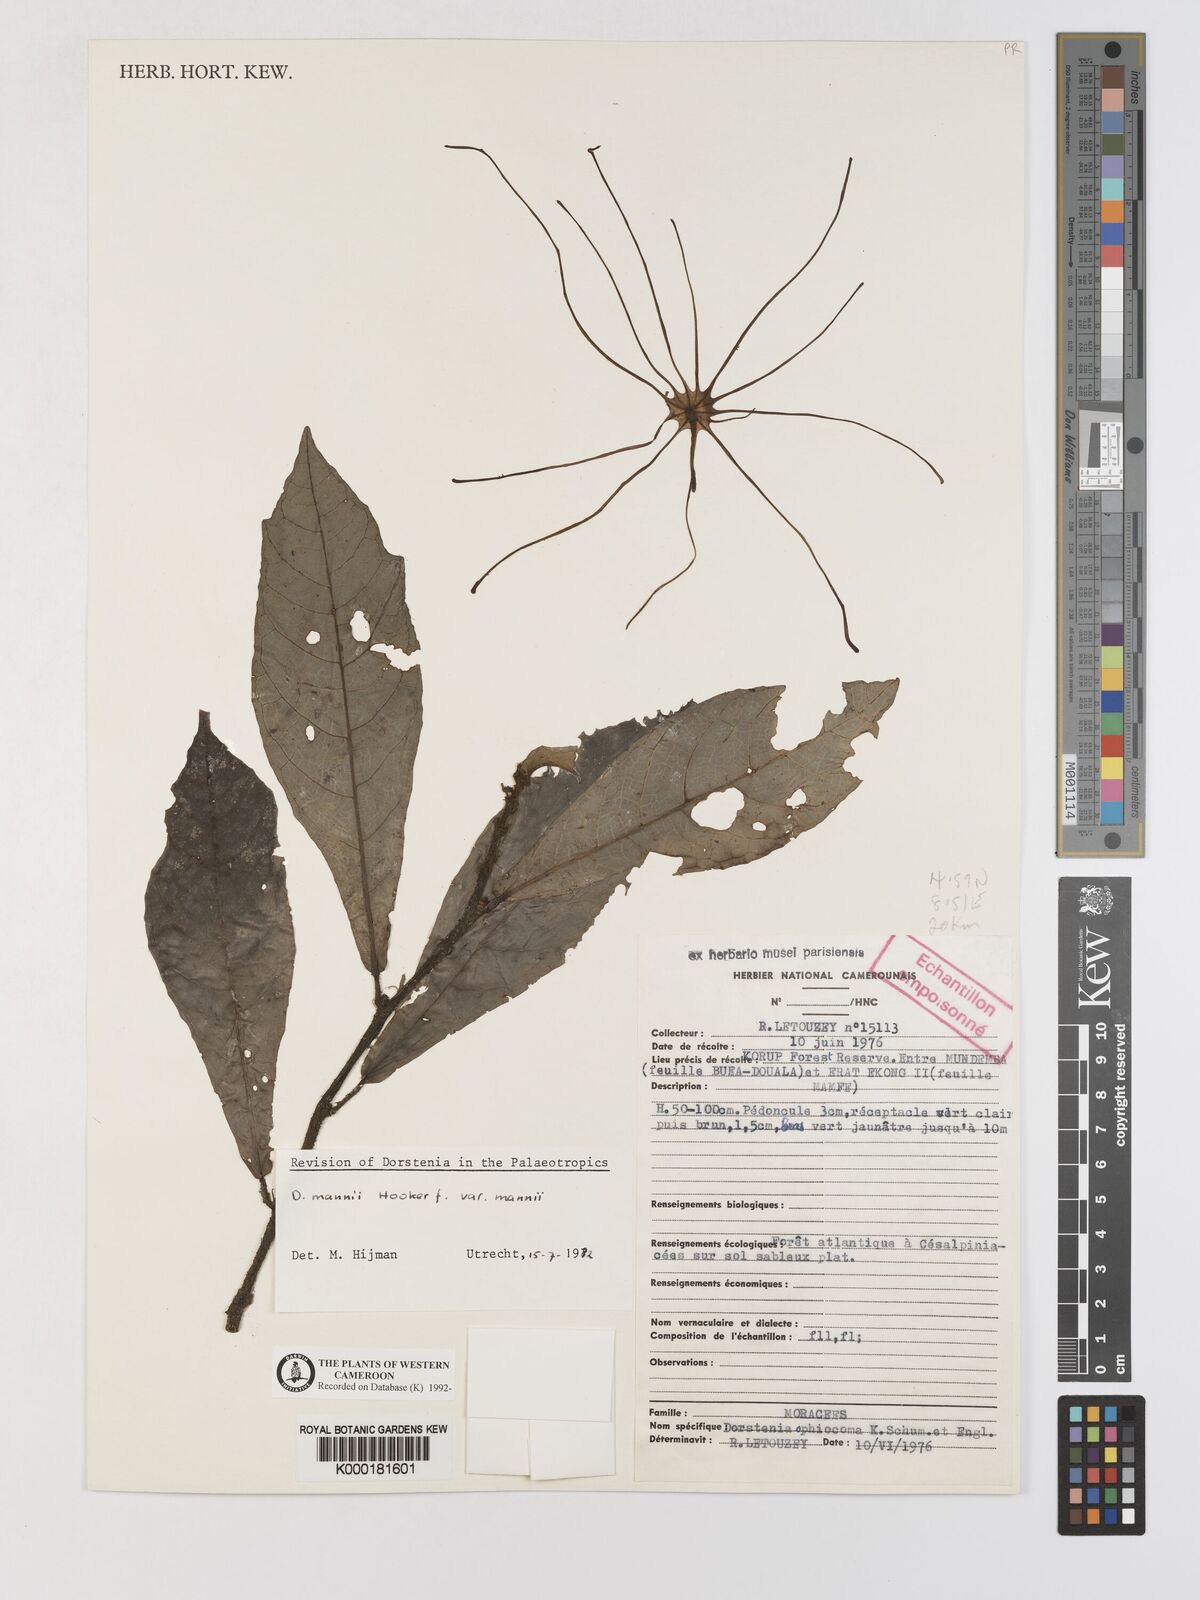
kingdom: Plantae
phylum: Tracheophyta
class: Magnoliopsida
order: Rosales
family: Moraceae
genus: Dorstenia
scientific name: Dorstenia mannii
